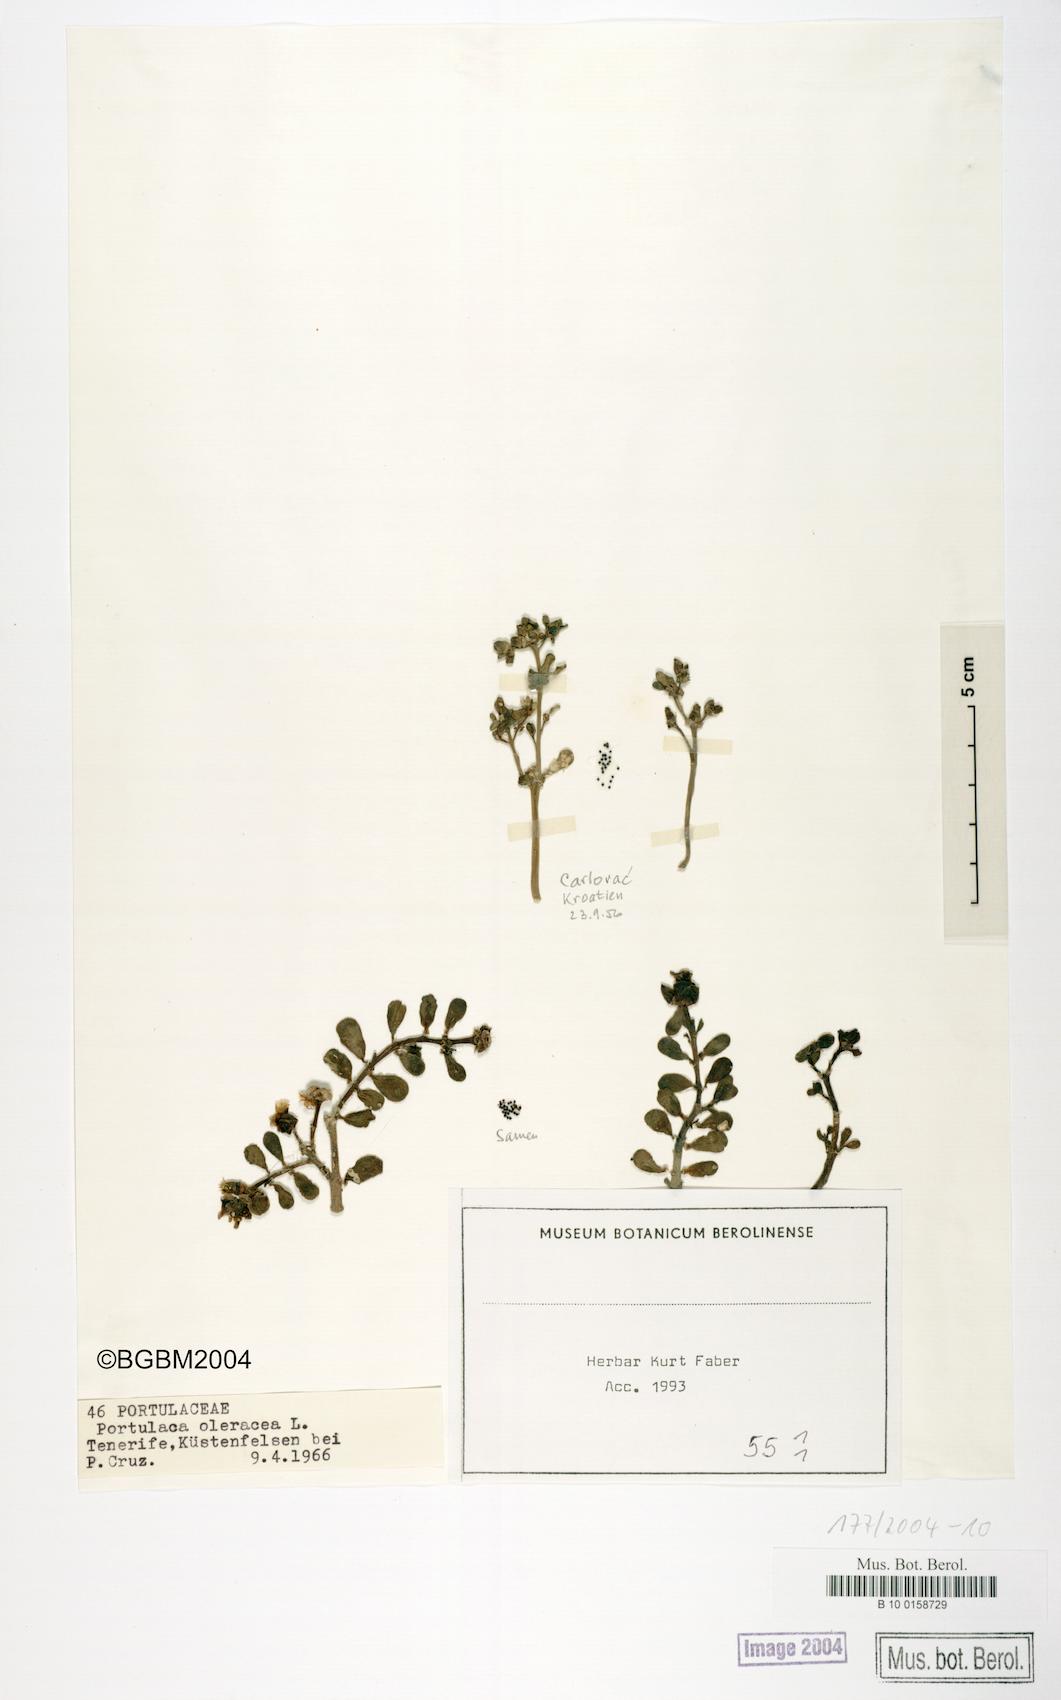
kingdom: Plantae
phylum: Tracheophyta
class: Magnoliopsida
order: Caryophyllales
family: Portulacaceae
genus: Portulaca
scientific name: Portulaca oleracea
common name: Common purslane
